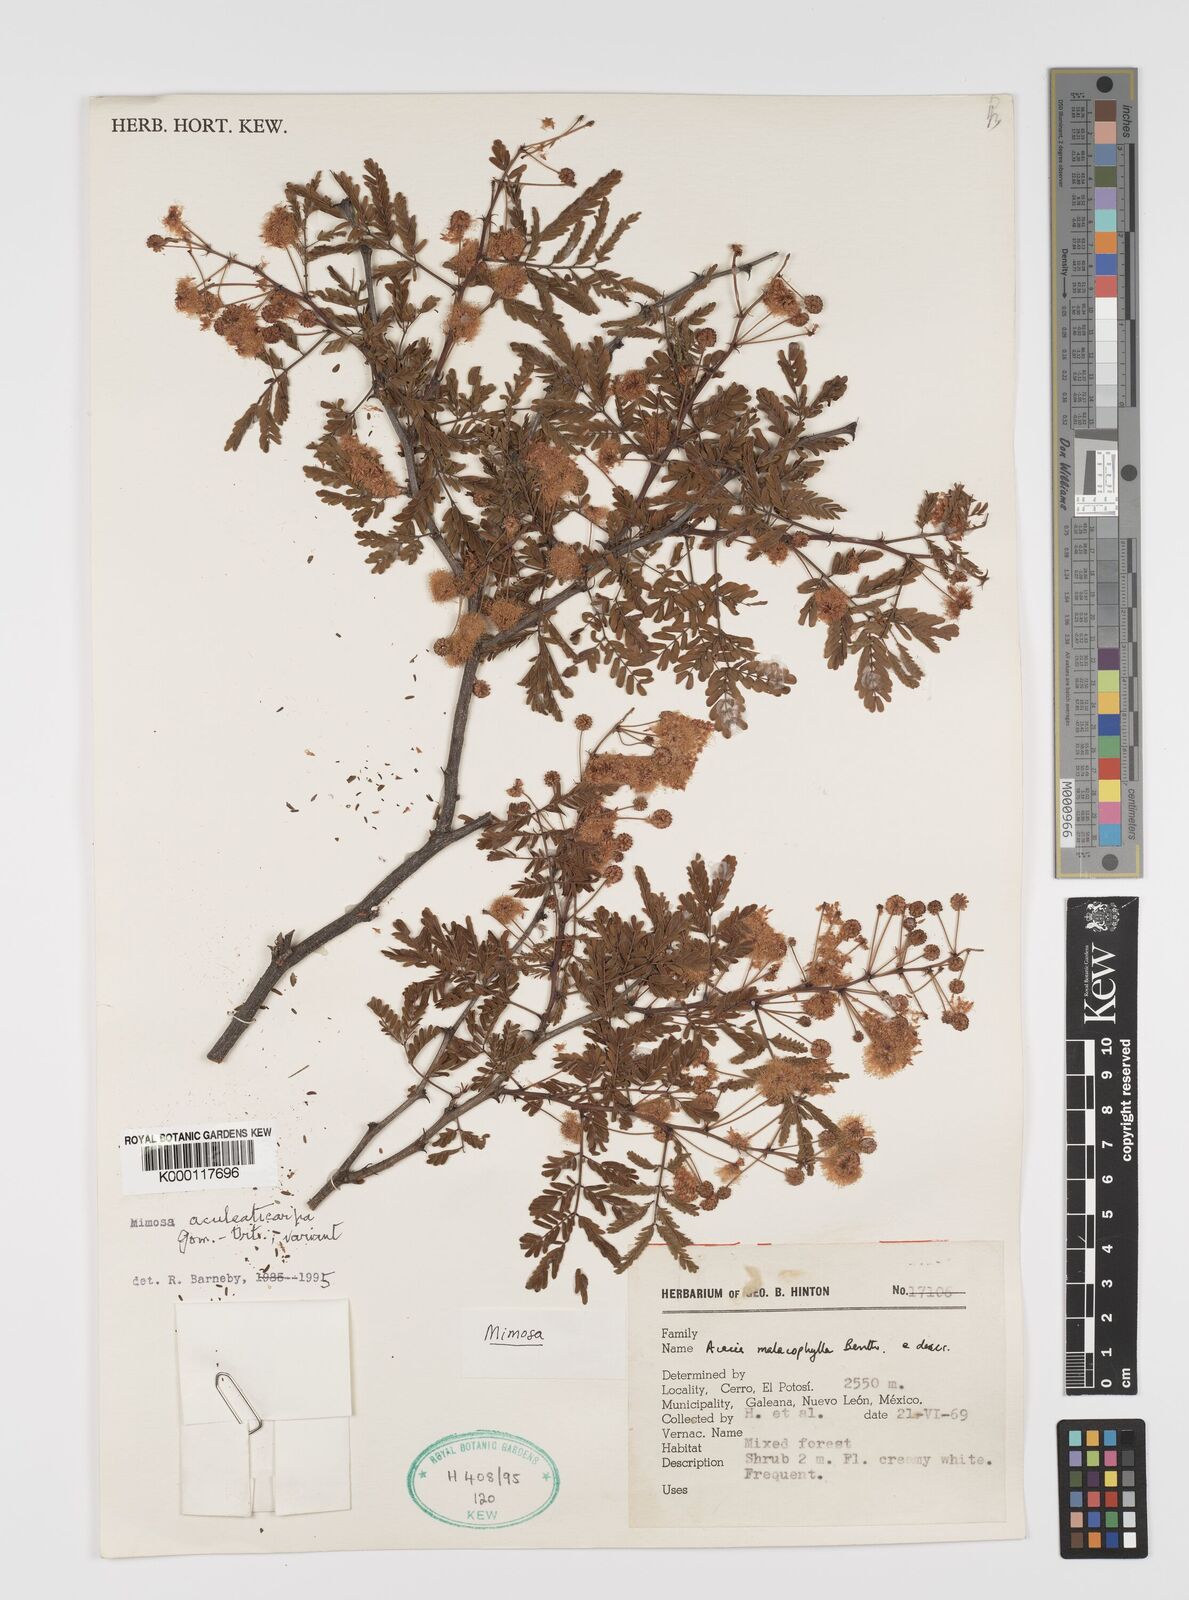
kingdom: Plantae
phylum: Tracheophyta
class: Magnoliopsida
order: Fabales
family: Fabaceae
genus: Mimosa
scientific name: Mimosa aculeaticarpa
